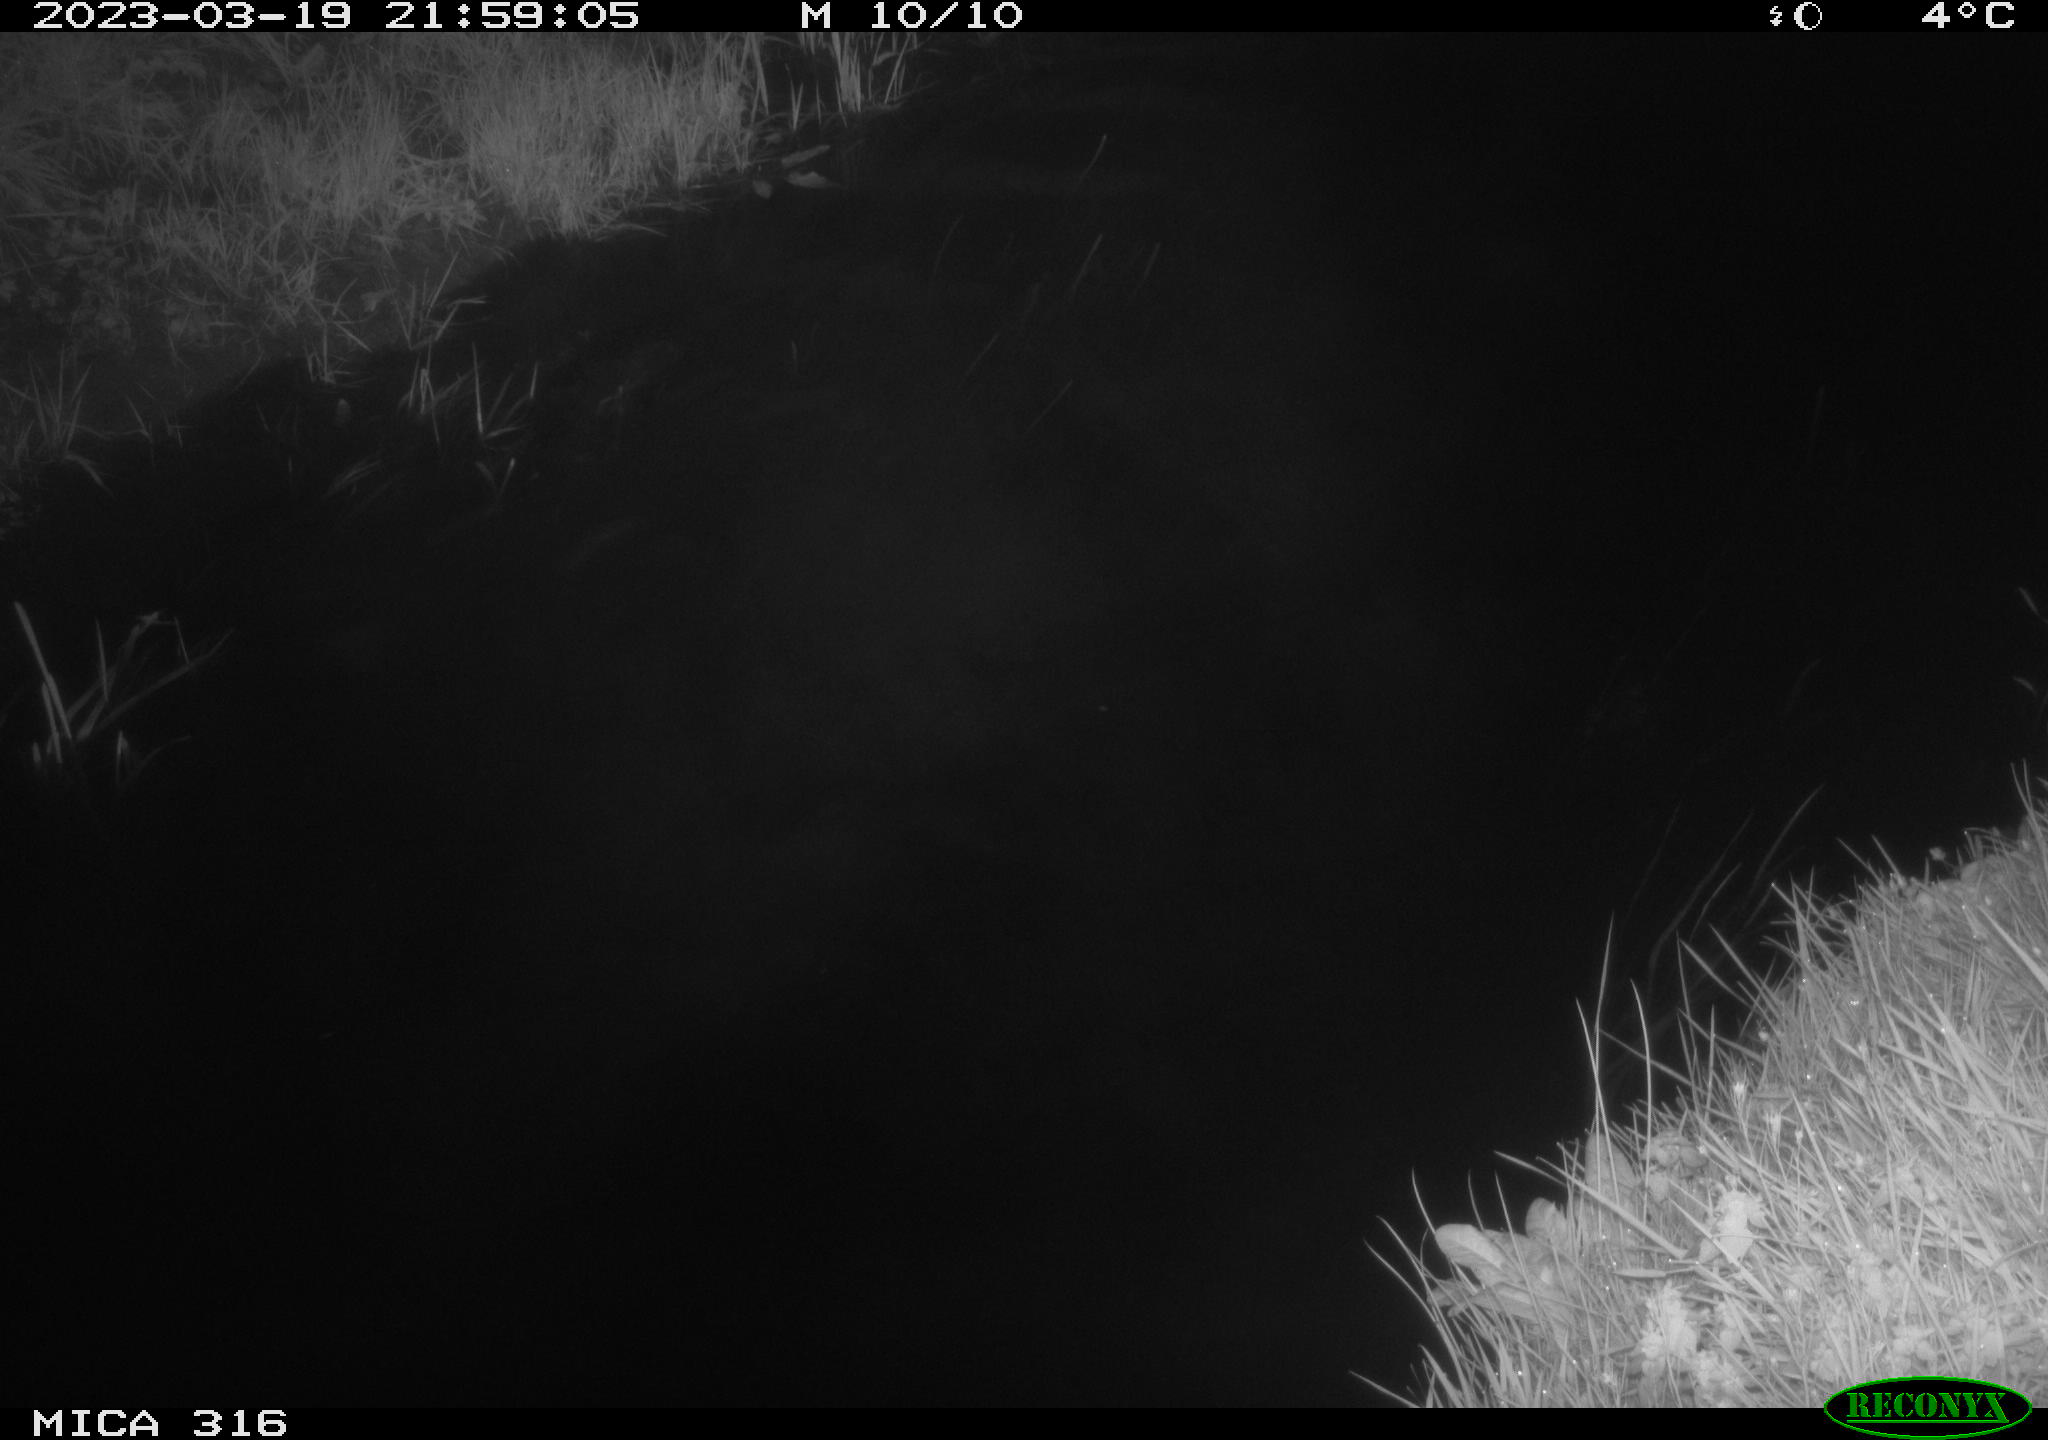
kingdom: Animalia
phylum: Chordata
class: Aves
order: Anseriformes
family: Anatidae
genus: Anas
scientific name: Anas
